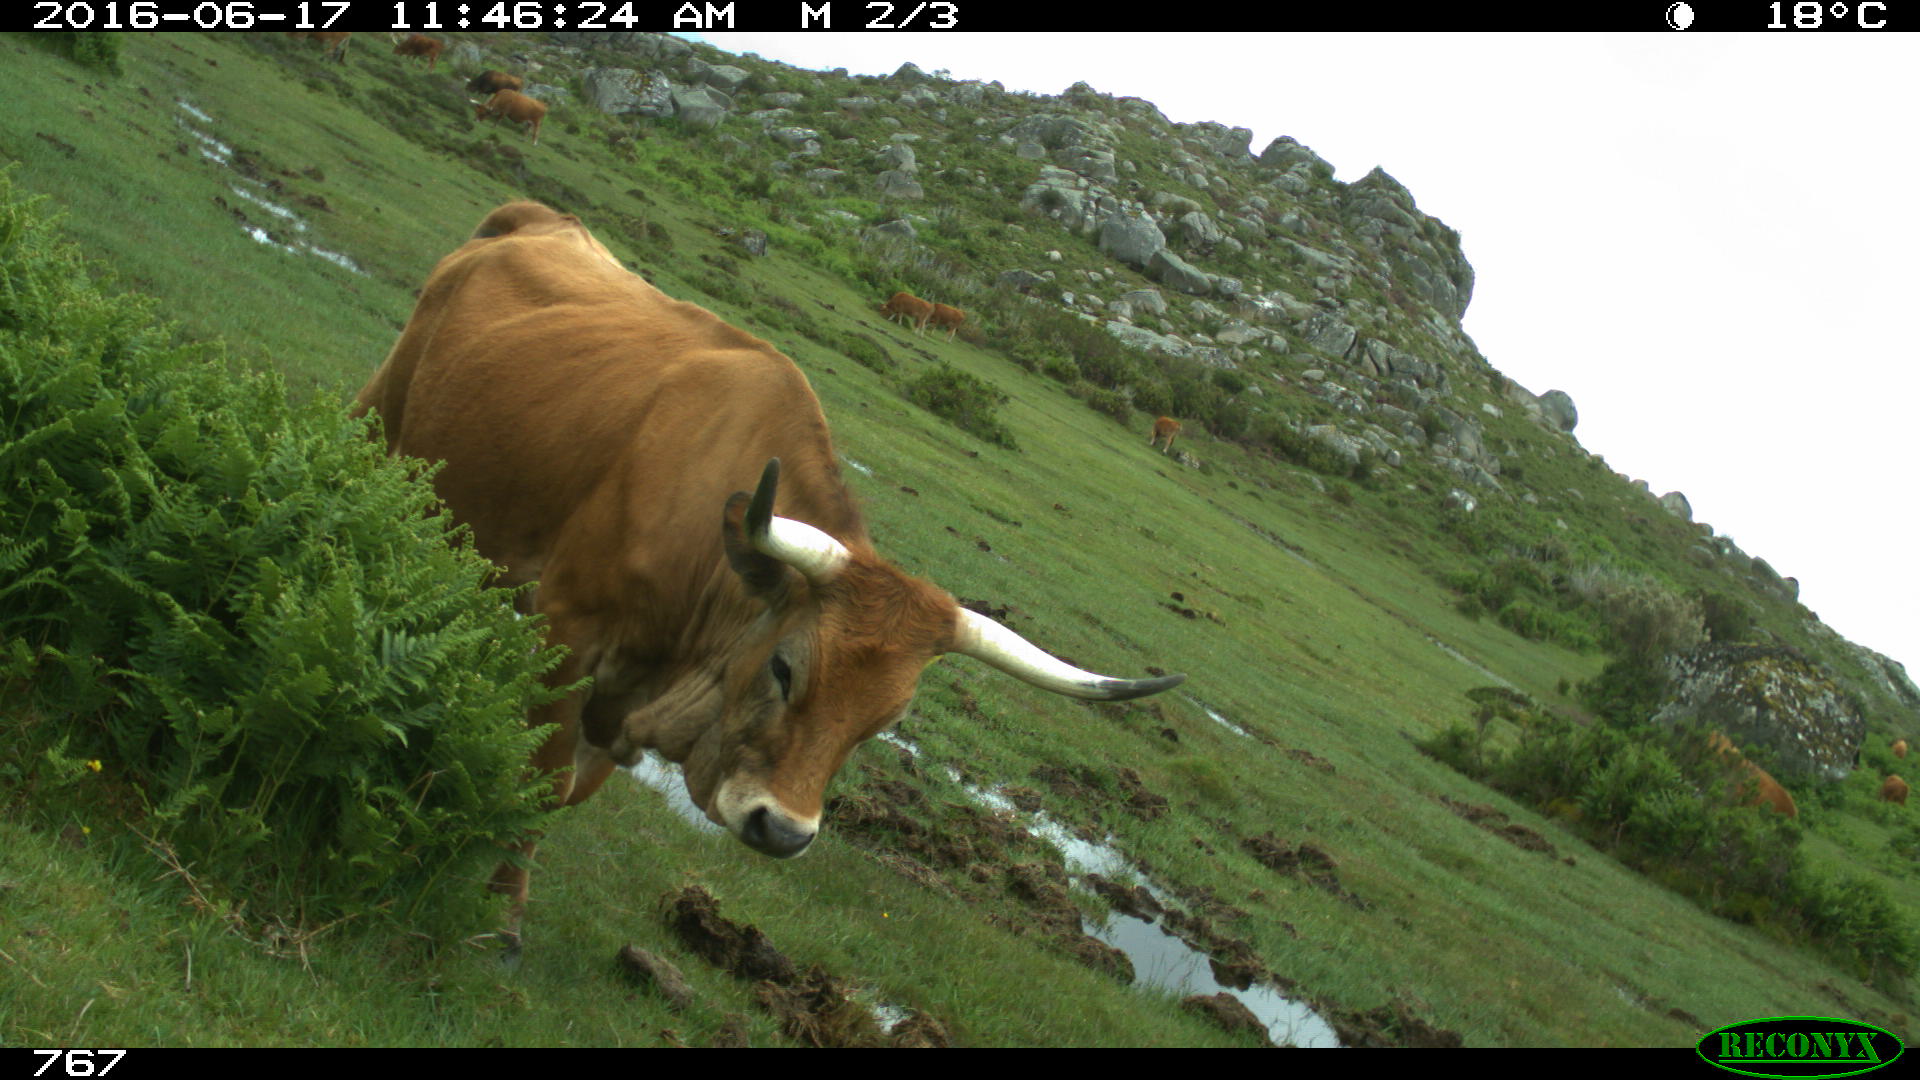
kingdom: Animalia
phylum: Chordata
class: Mammalia
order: Artiodactyla
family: Bovidae
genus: Bos
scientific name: Bos taurus
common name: Domesticated cattle
